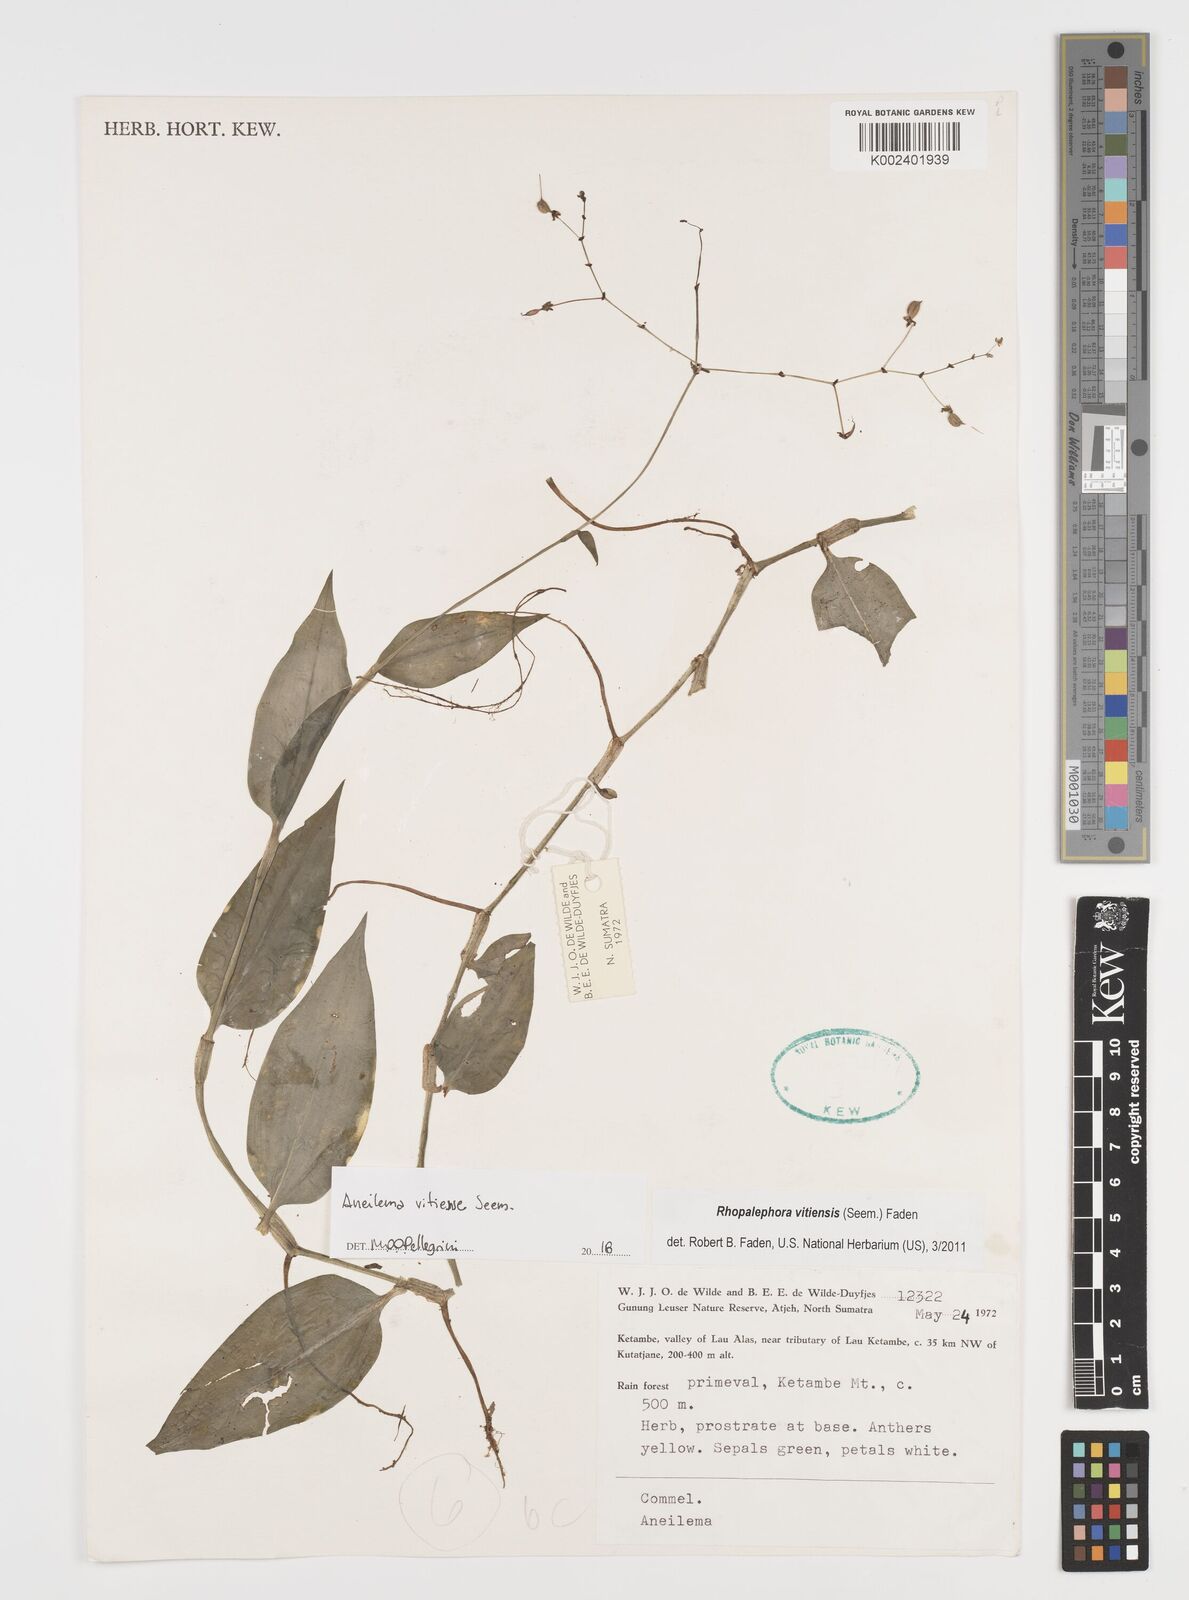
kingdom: Plantae
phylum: Tracheophyta
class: Liliopsida
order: Commelinales
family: Commelinaceae
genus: Rhopalephora
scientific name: Rhopalephora vitiensis
